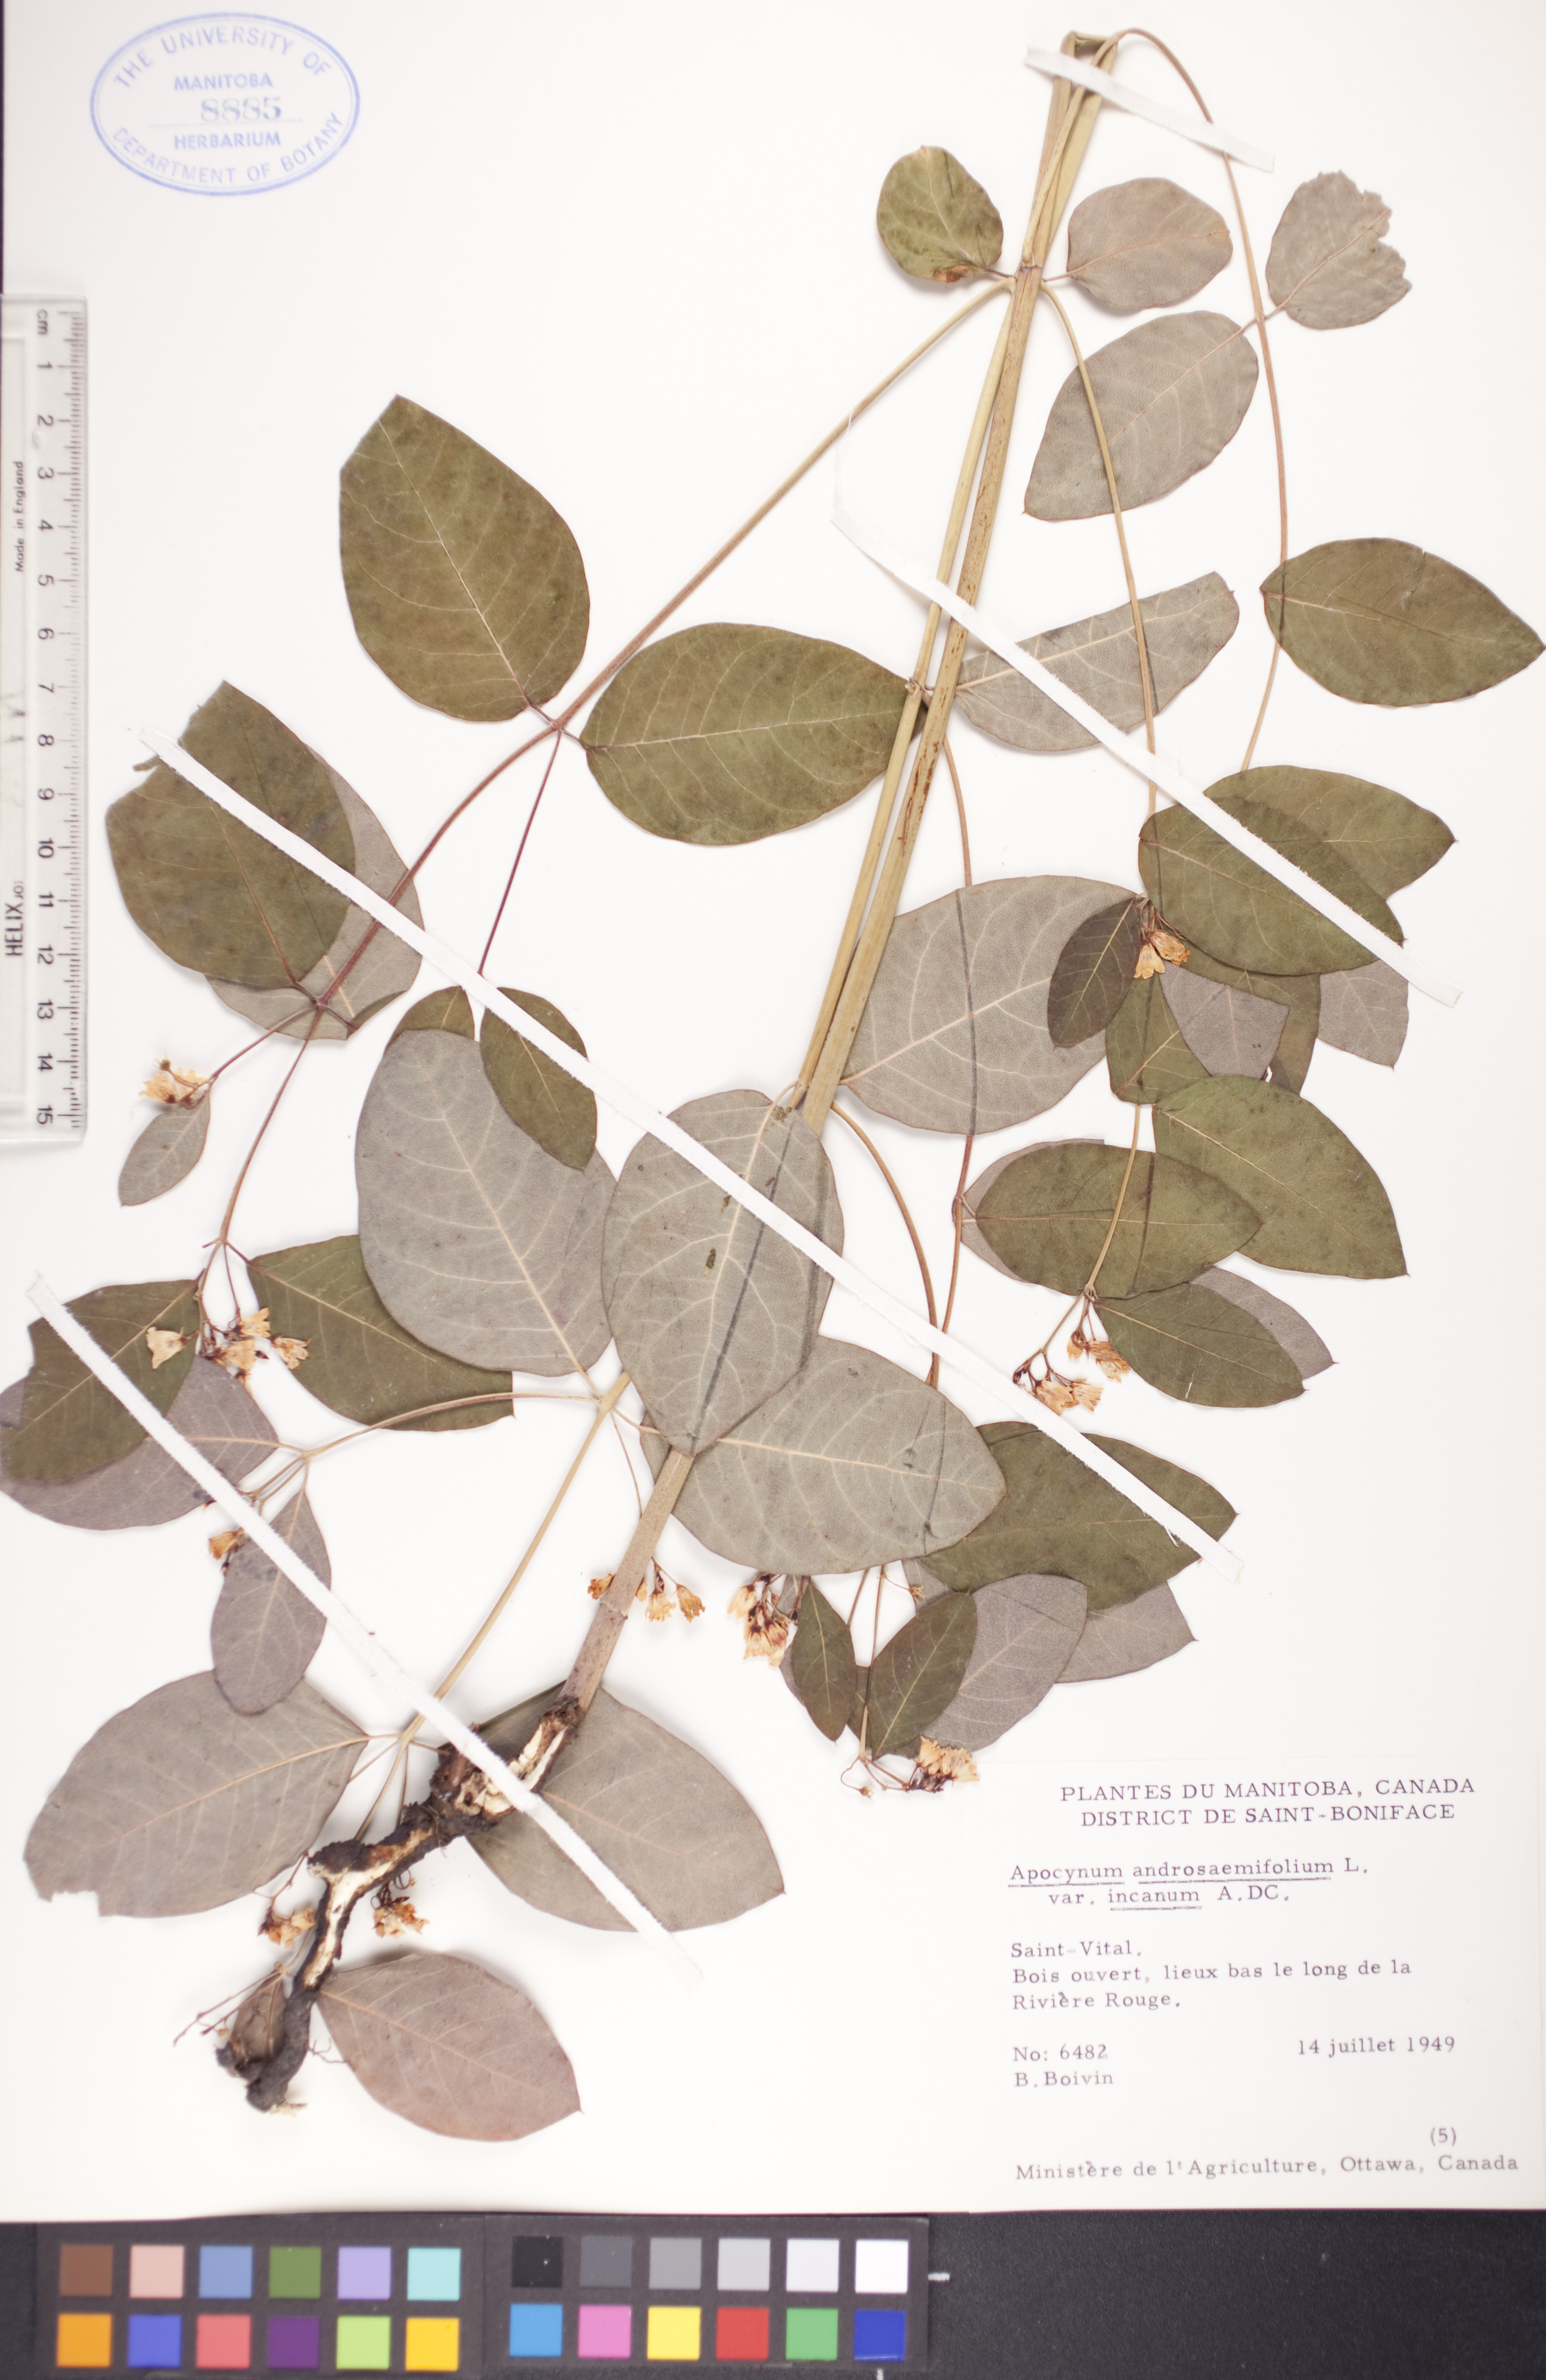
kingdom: Plantae
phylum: Tracheophyta
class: Magnoliopsida
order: Gentianales
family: Apocynaceae
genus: Apocynum
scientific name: Apocynum androsaemifolium
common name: Spreading dogbane
